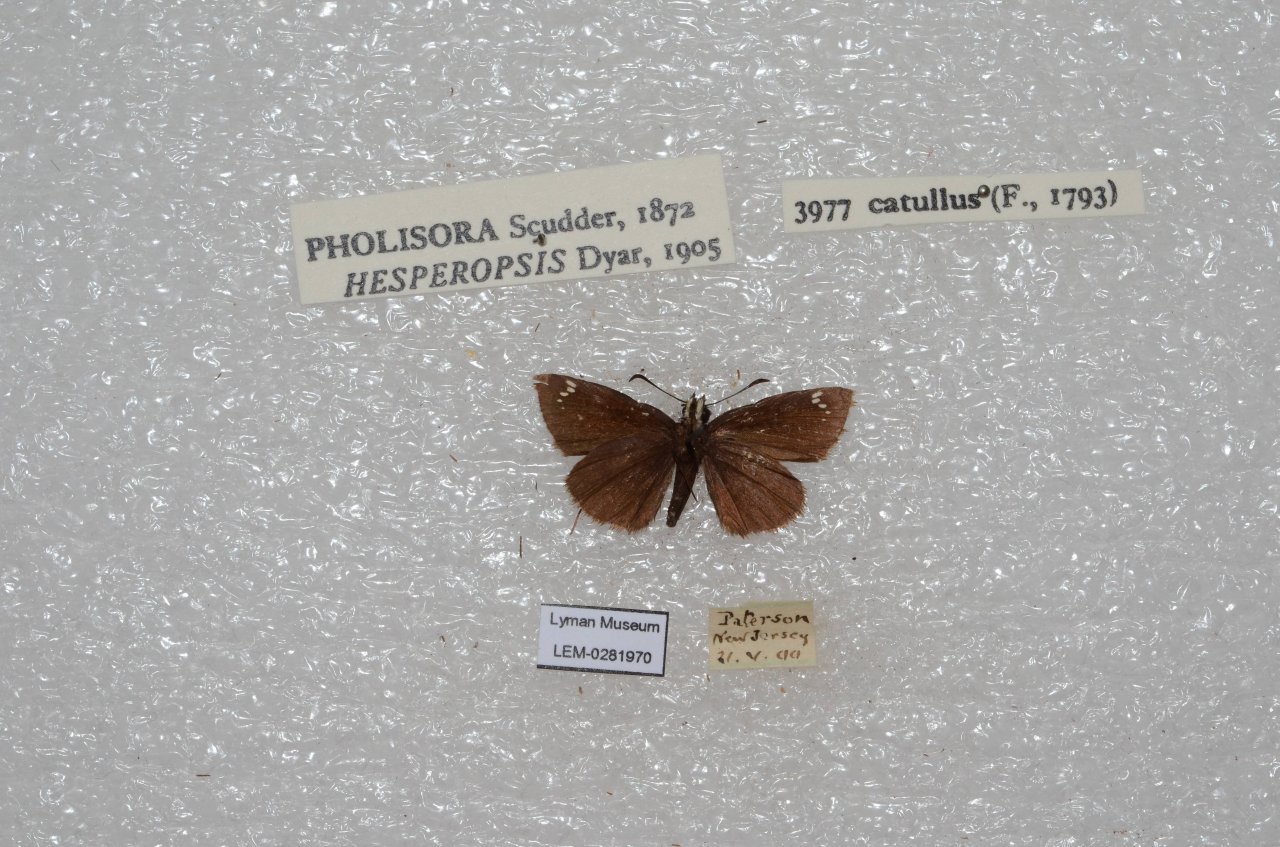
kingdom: Animalia
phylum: Arthropoda
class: Insecta
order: Lepidoptera
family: Hesperiidae
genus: Pholisora
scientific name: Pholisora catullus
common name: Common Sootywing
